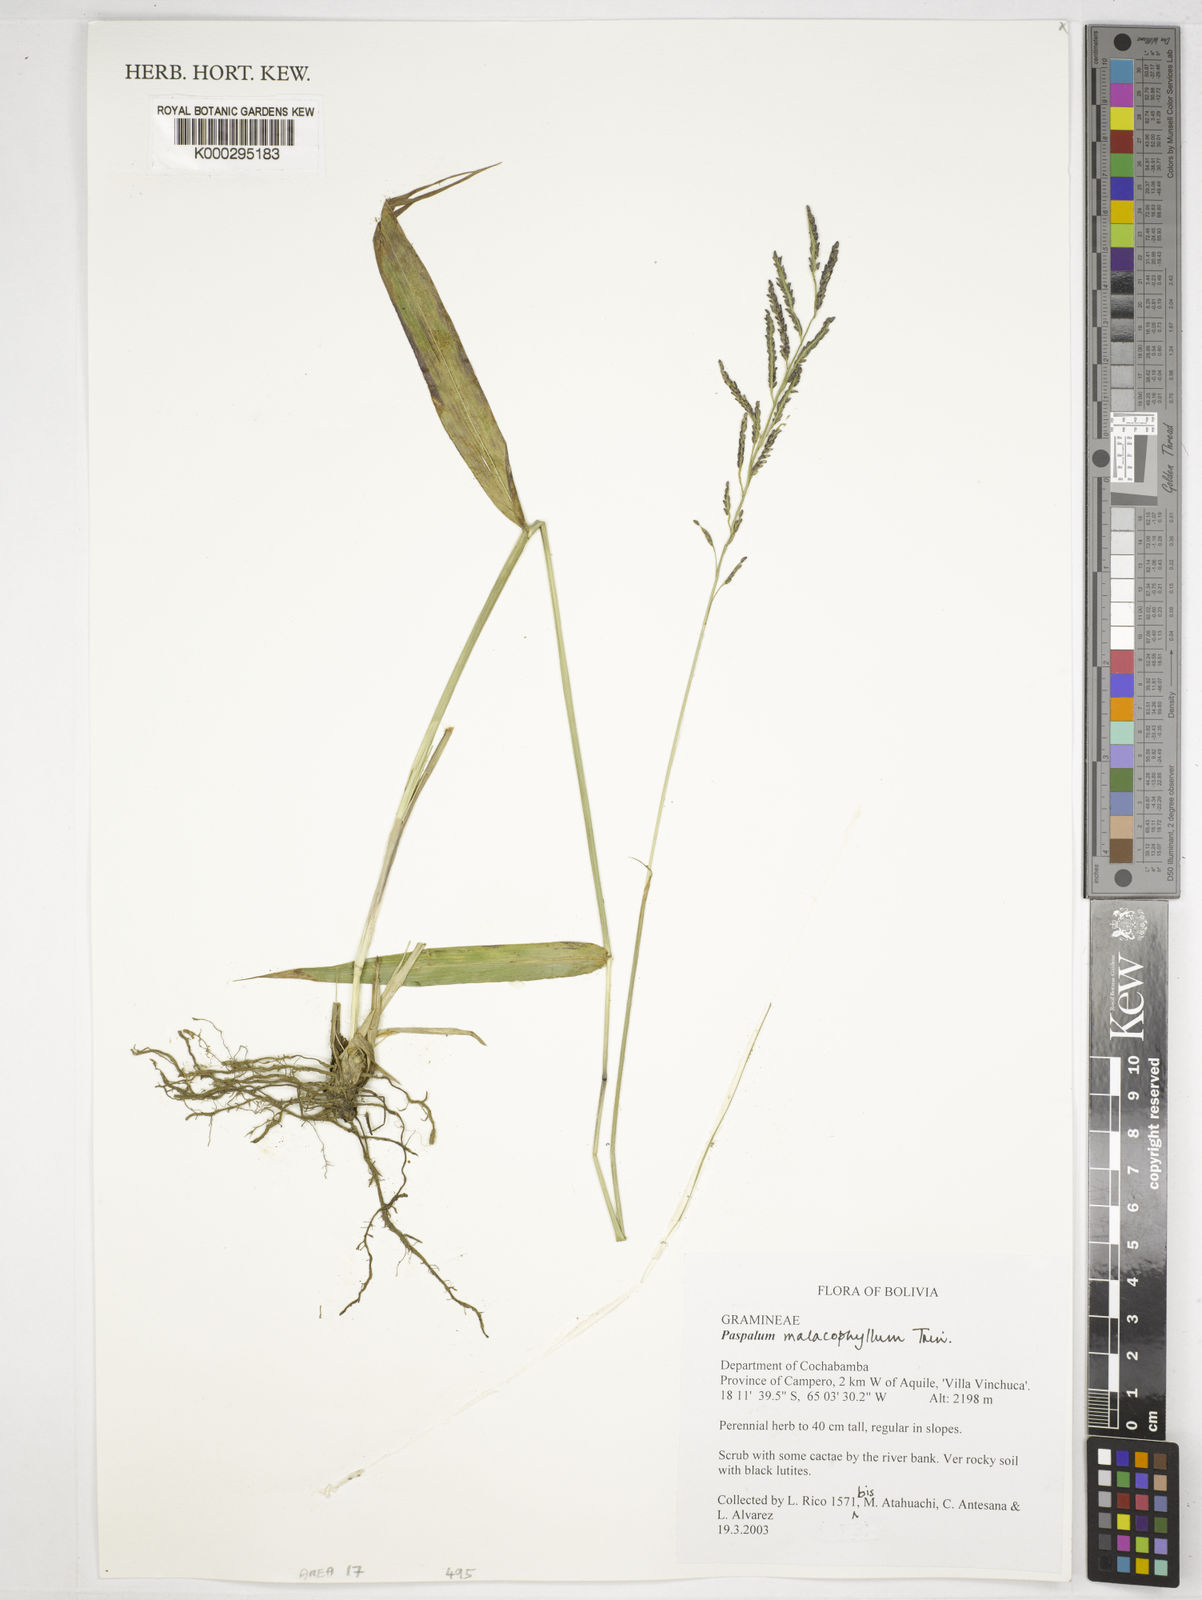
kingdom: Plantae
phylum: Tracheophyta
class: Liliopsida
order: Poales
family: Poaceae
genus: Paspalum
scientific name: Paspalum malacophyllum
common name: Ribbed paspalum
